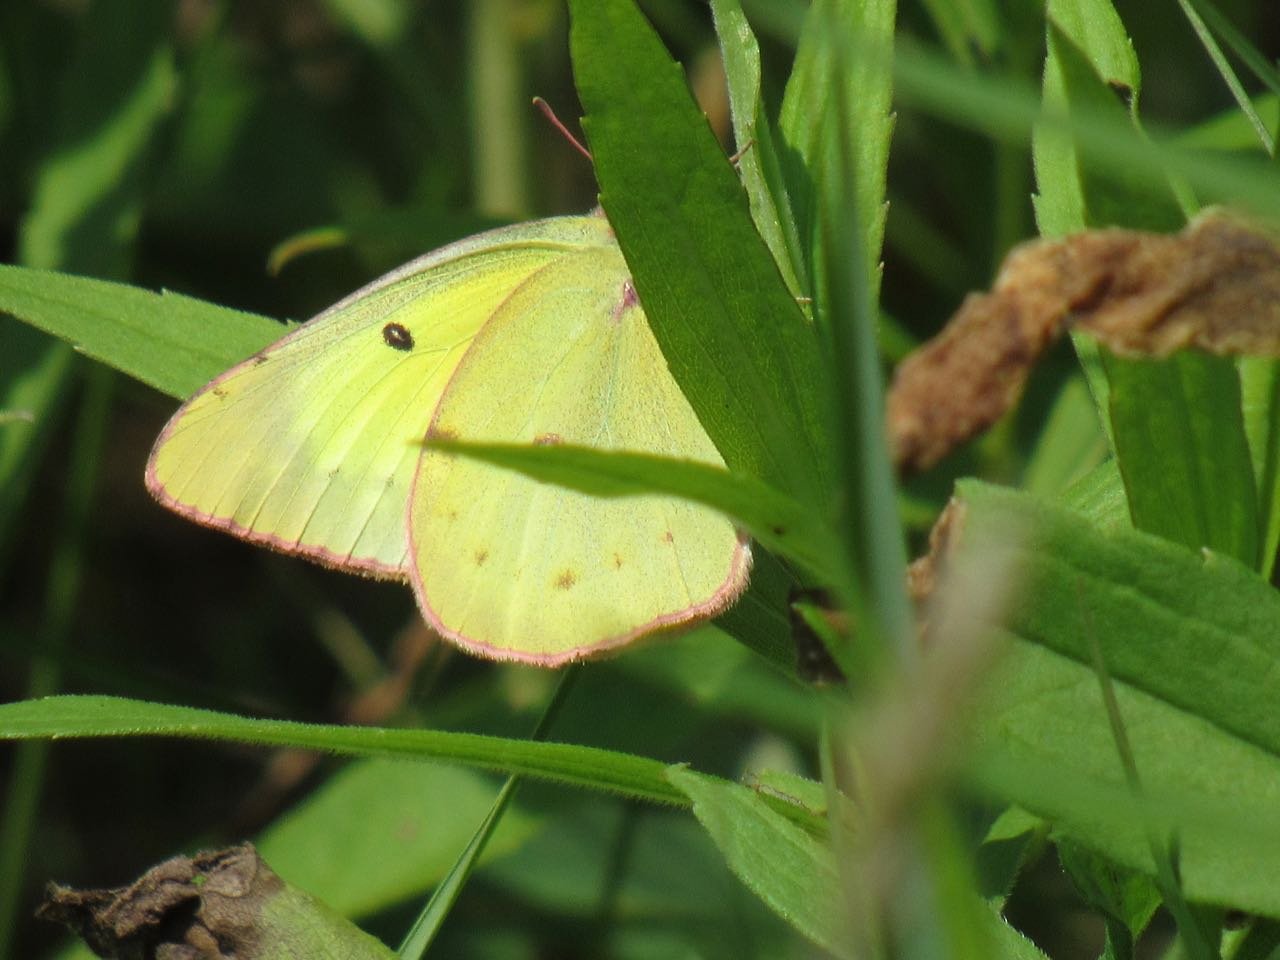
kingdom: Animalia
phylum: Arthropoda
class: Insecta
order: Lepidoptera
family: Pieridae
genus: Colias
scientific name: Colias philodice
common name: Clouded Sulphur
